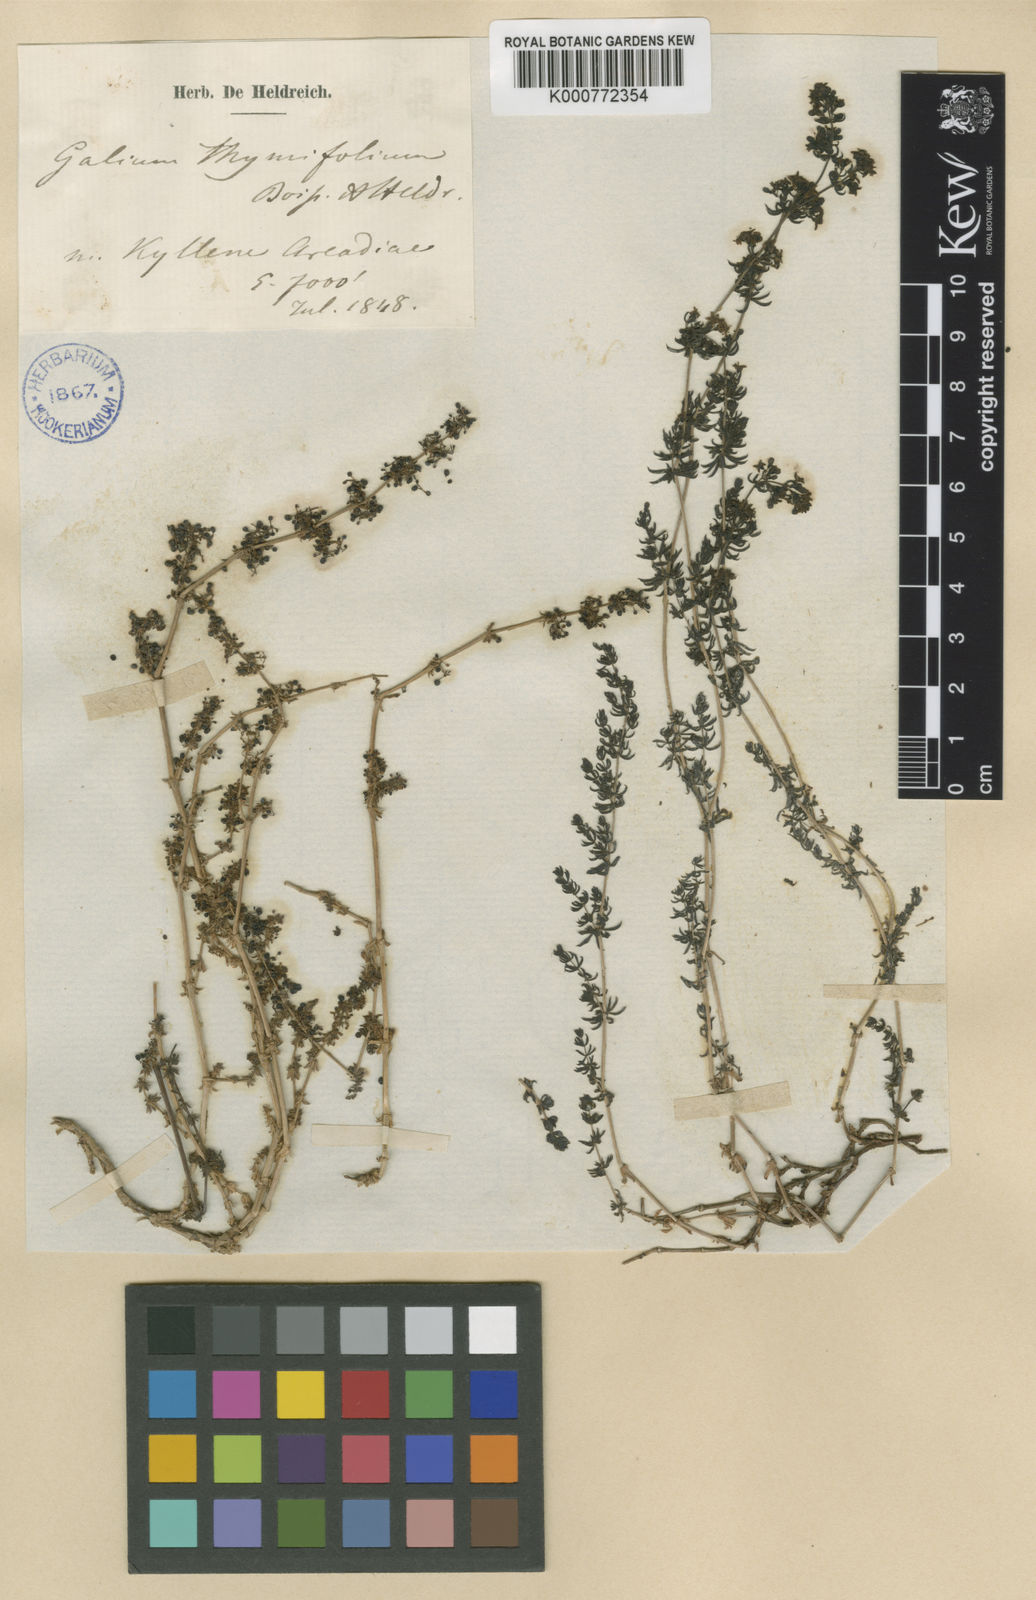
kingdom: Plantae
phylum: Tracheophyta
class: Magnoliopsida
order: Gentianales
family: Rubiaceae
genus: Galium
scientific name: Galium thymifolium
